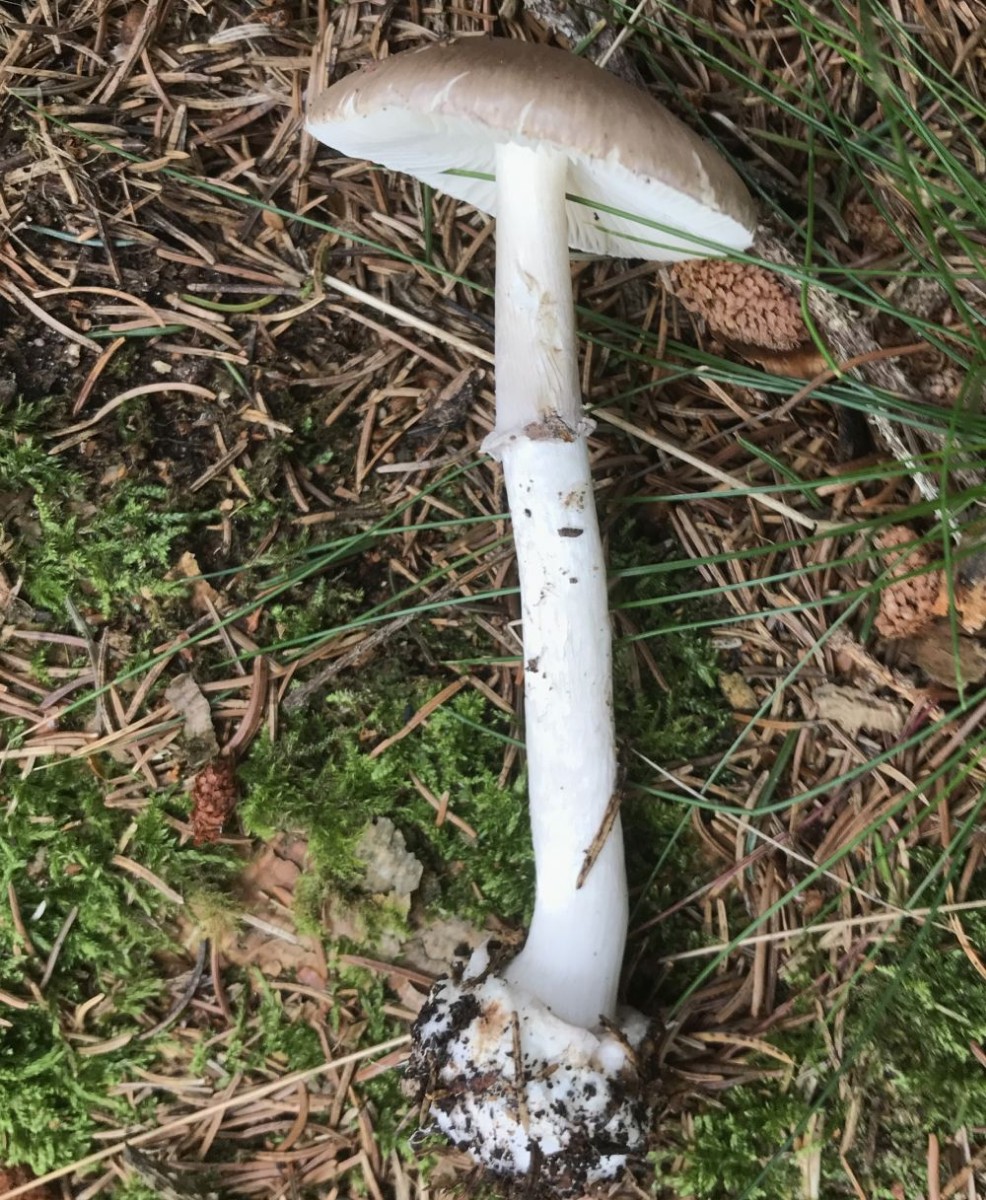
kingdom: Fungi
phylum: Basidiomycota
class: Agaricomycetes
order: Agaricales
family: Amanitaceae
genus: Amanita
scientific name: Amanita porphyria
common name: porfyr-fluesvamp
